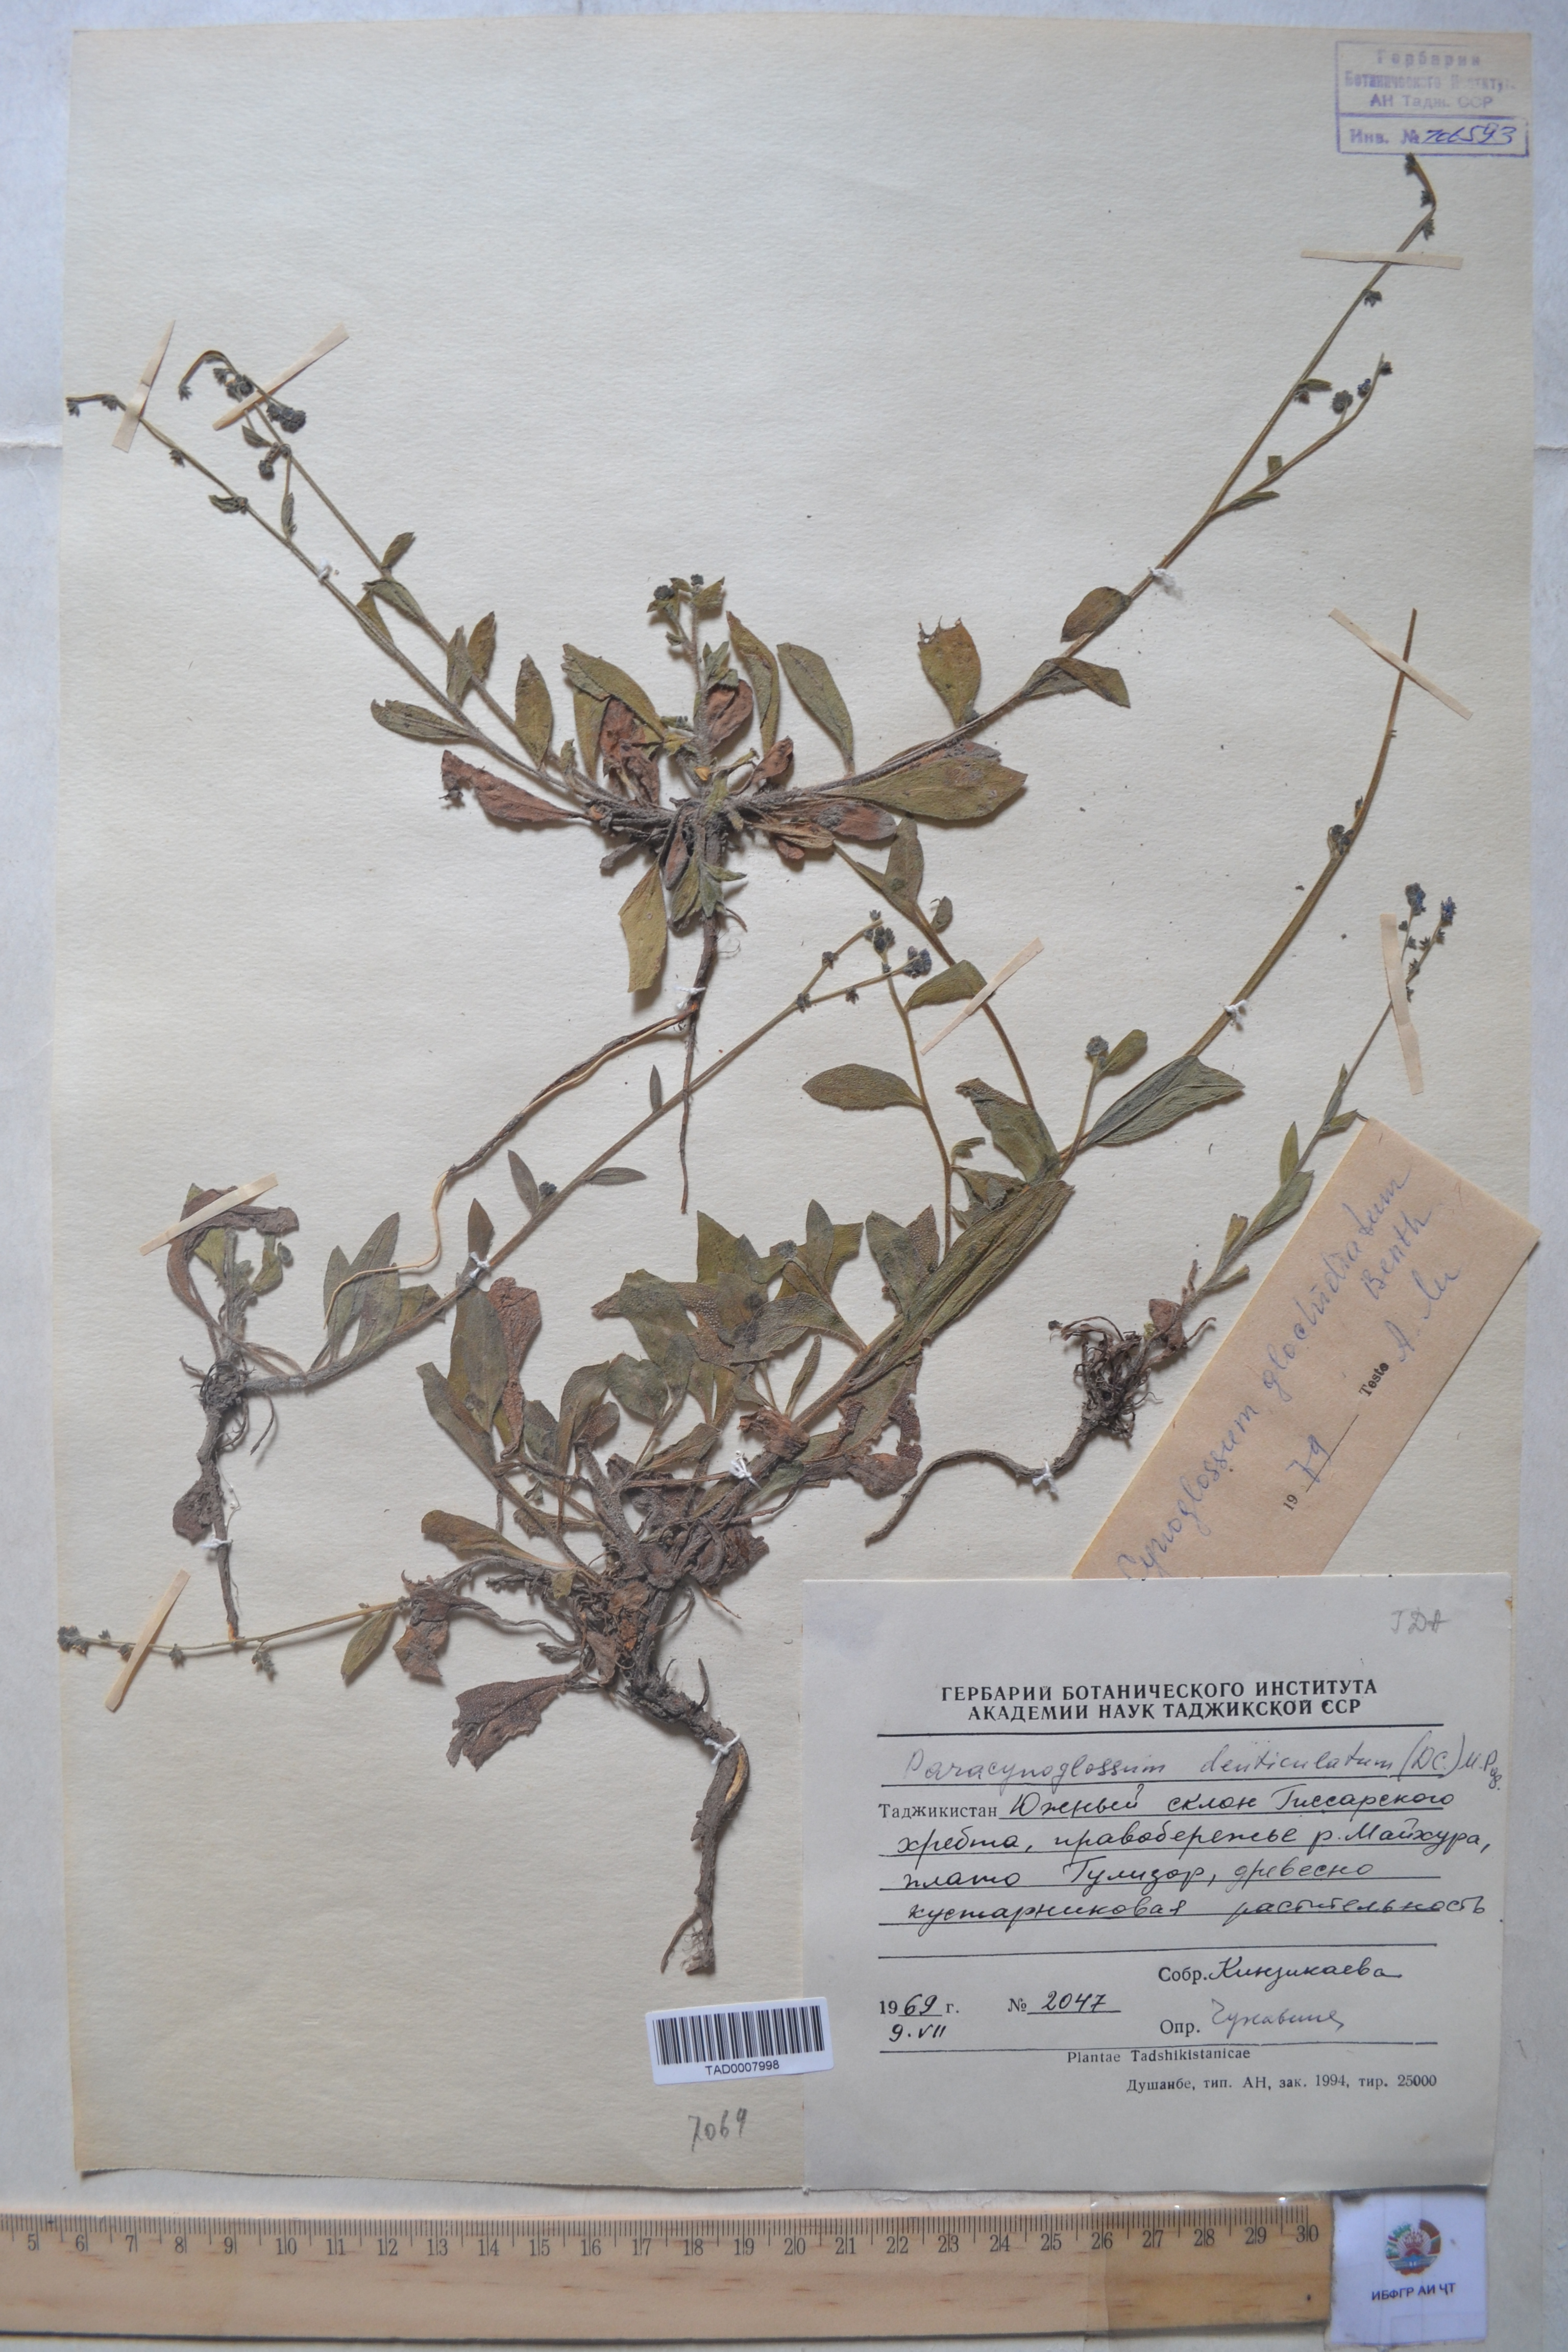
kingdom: Plantae
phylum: Tracheophyta
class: Magnoliopsida
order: Boraginales
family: Boraginaceae
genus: Paracynoglossum
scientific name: Paracynoglossum glochidiatum
